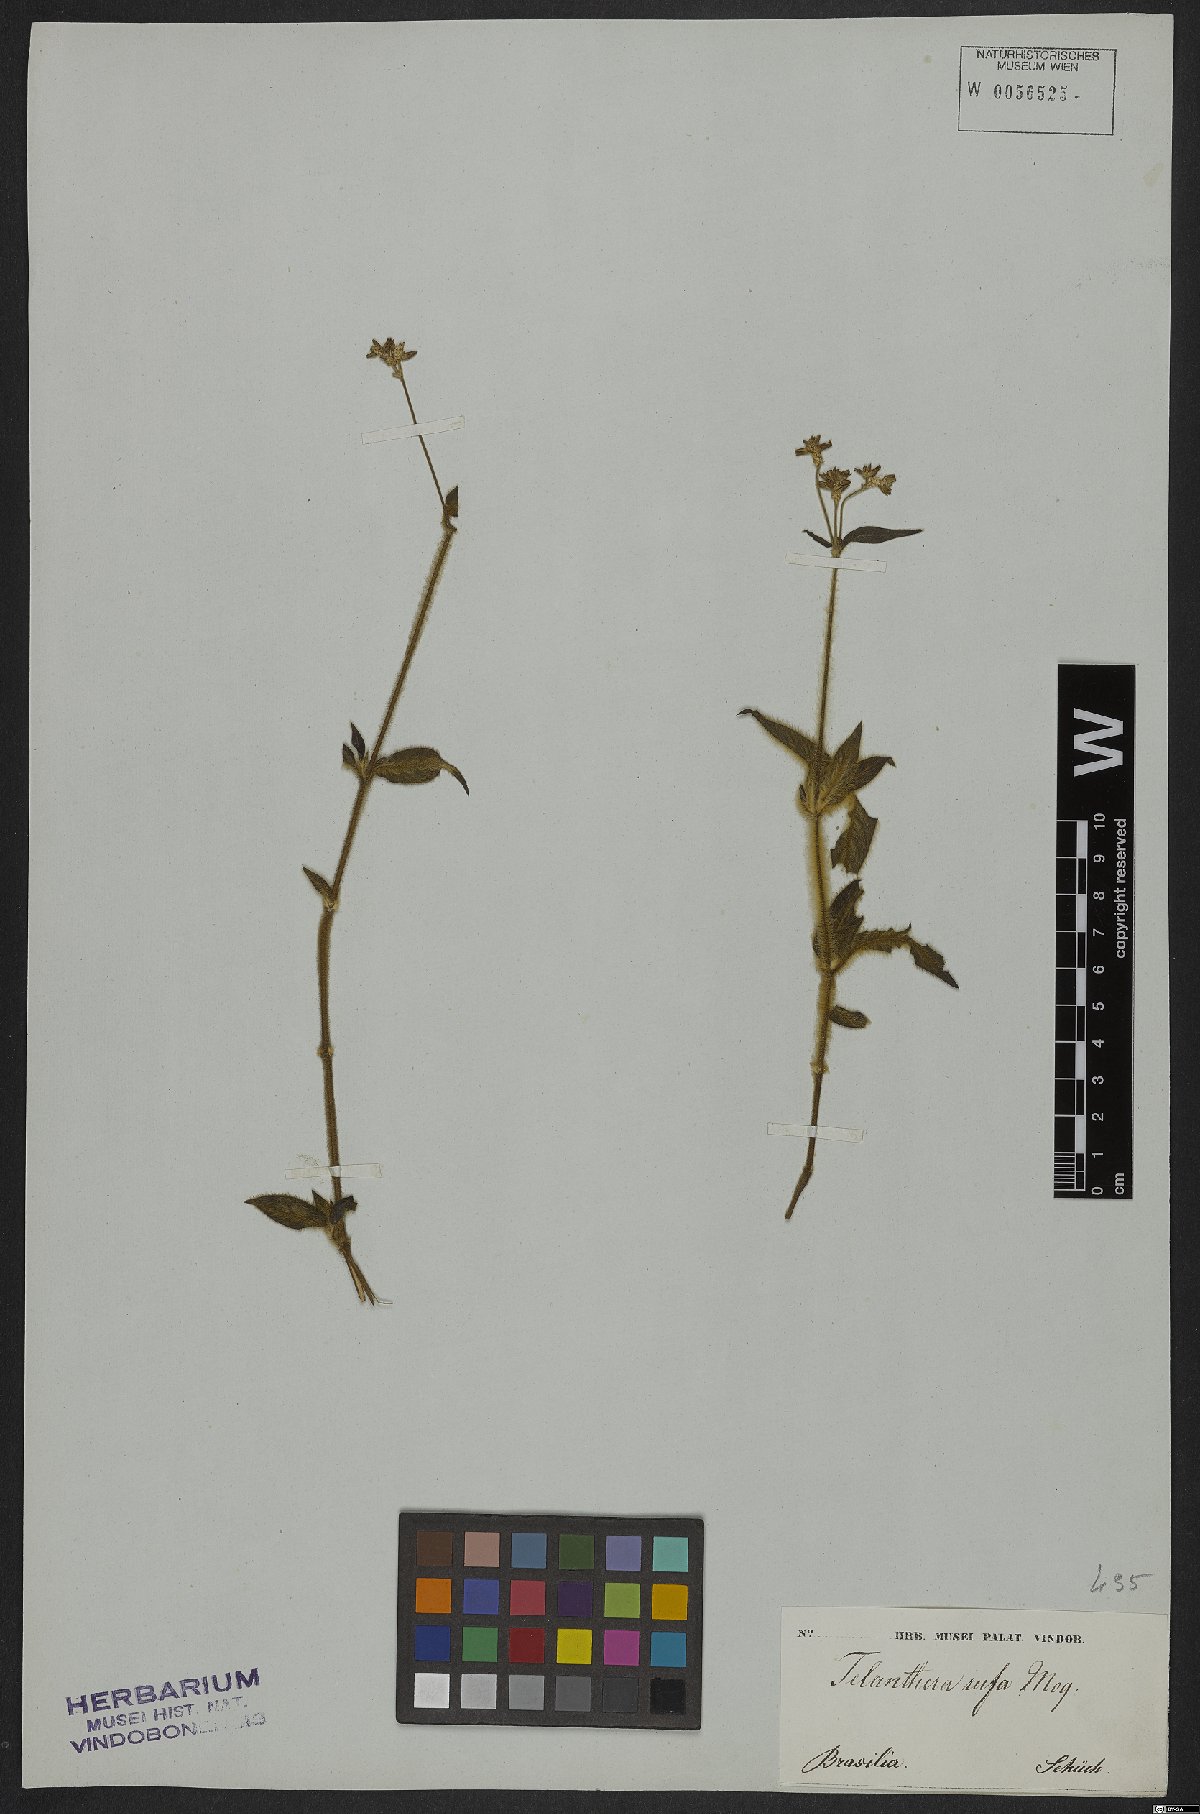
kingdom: Plantae
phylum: Tracheophyta
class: Magnoliopsida
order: Caryophyllales
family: Amaranthaceae
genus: Alternanthera
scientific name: Alternanthera rufa
